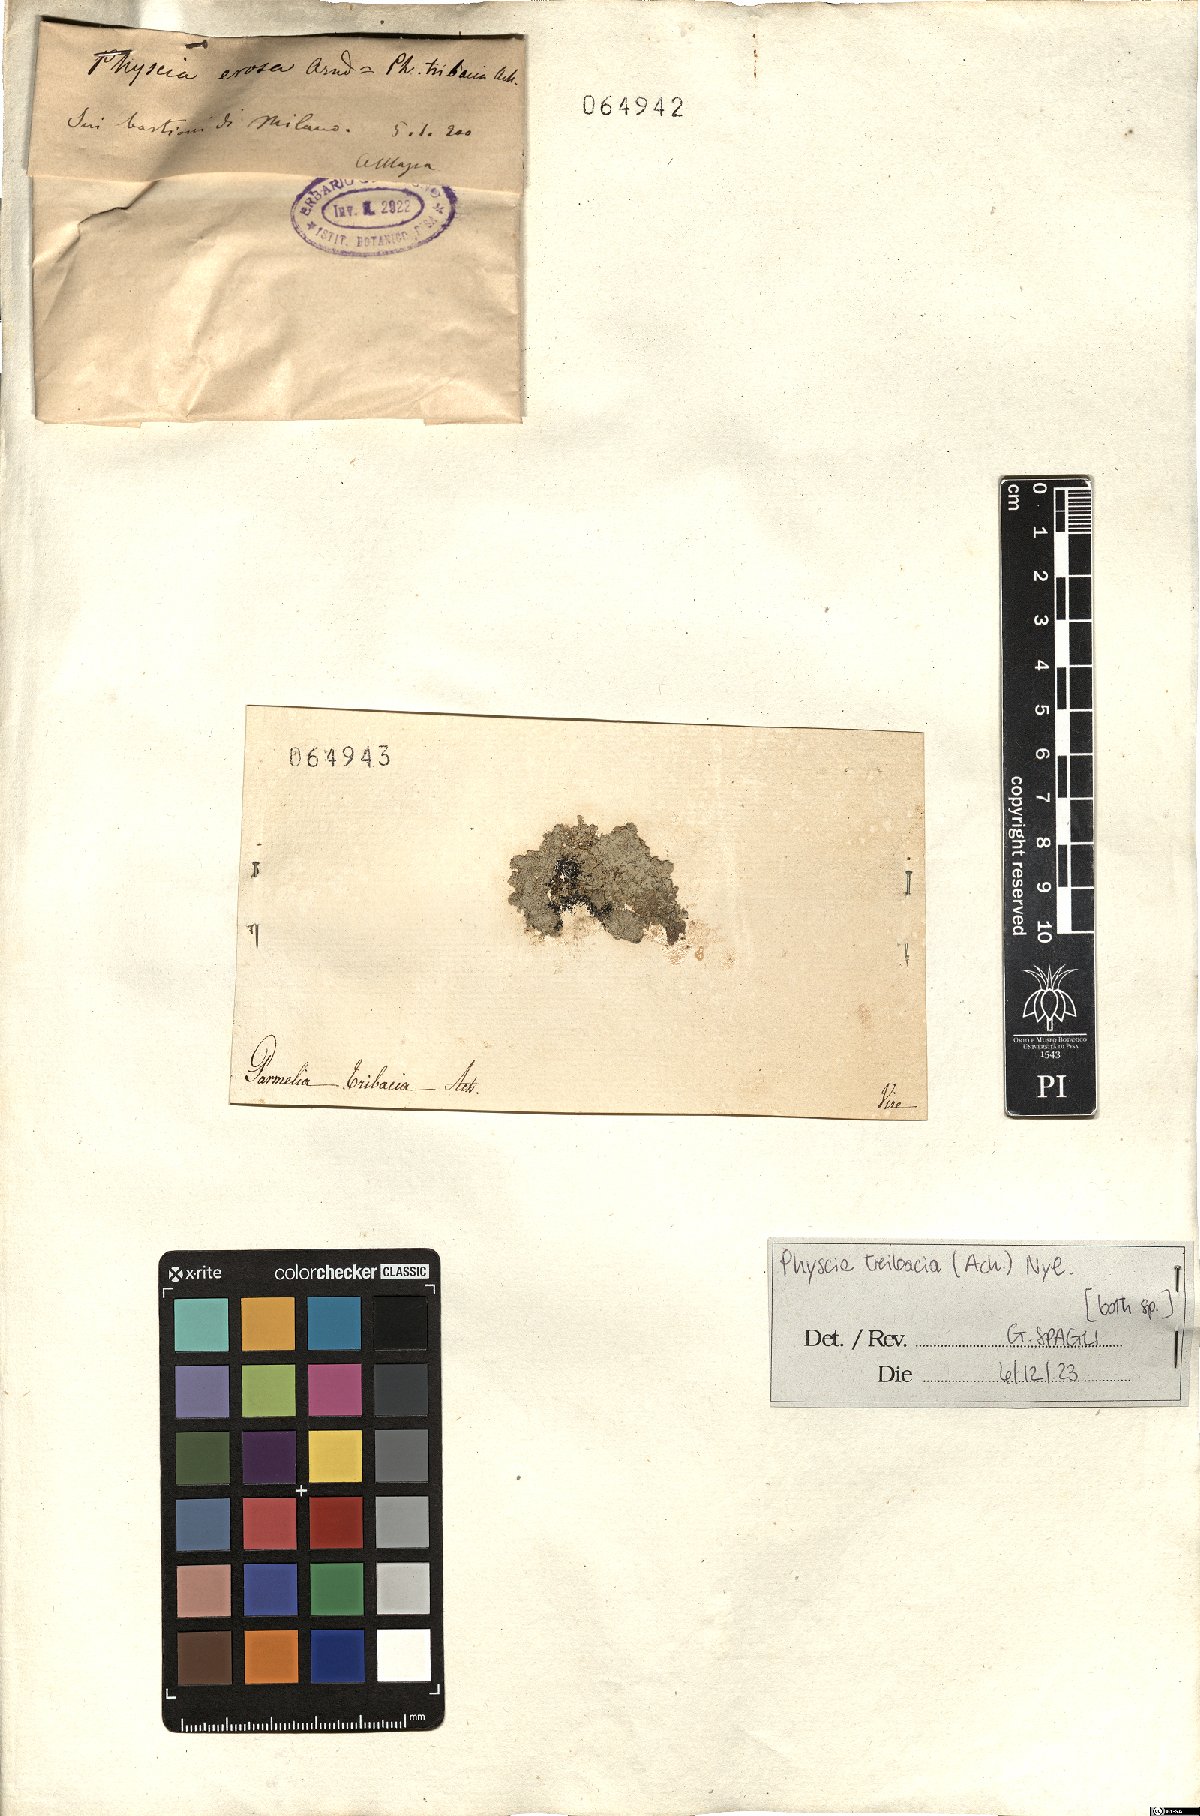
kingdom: Fungi
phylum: Ascomycota
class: Lecanoromycetes
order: Caliciales
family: Physciaceae
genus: Physcia
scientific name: Physcia tribacia
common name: Beaded rosette lichen
